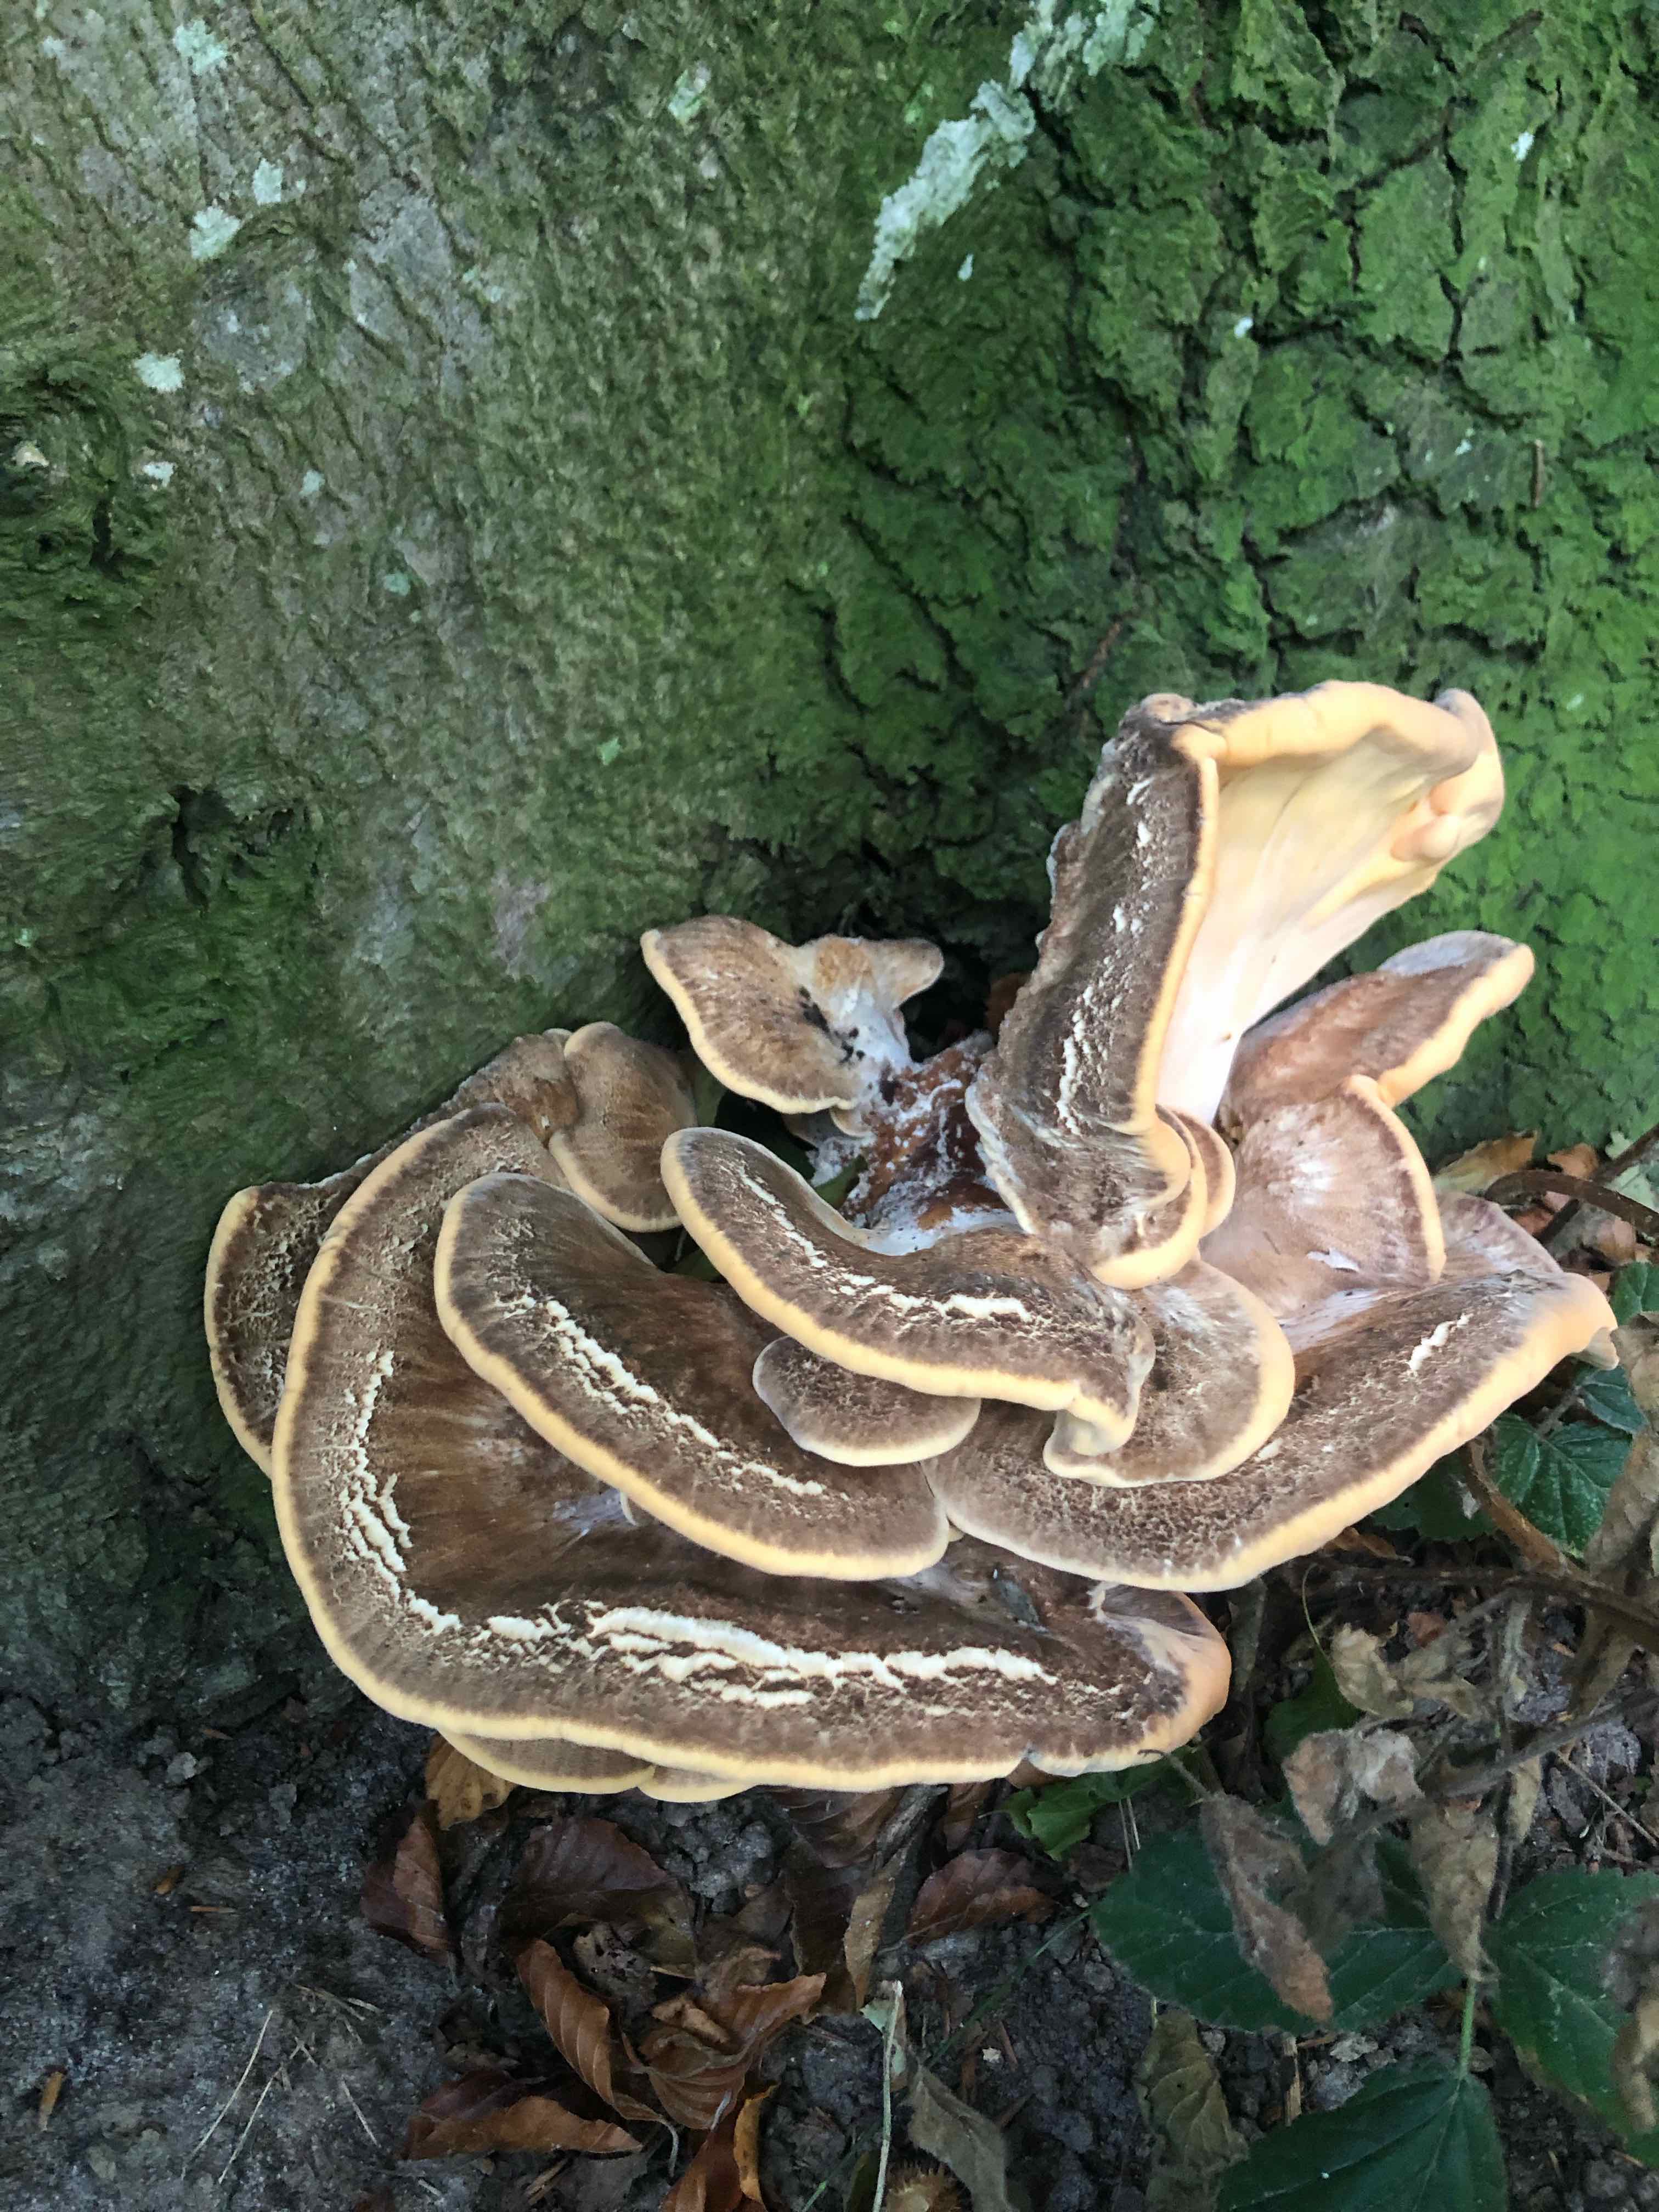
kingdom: Fungi
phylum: Basidiomycota
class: Agaricomycetes
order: Polyporales
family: Meripilaceae
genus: Meripilus
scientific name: Meripilus giganteus
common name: kæmpeporesvamp
